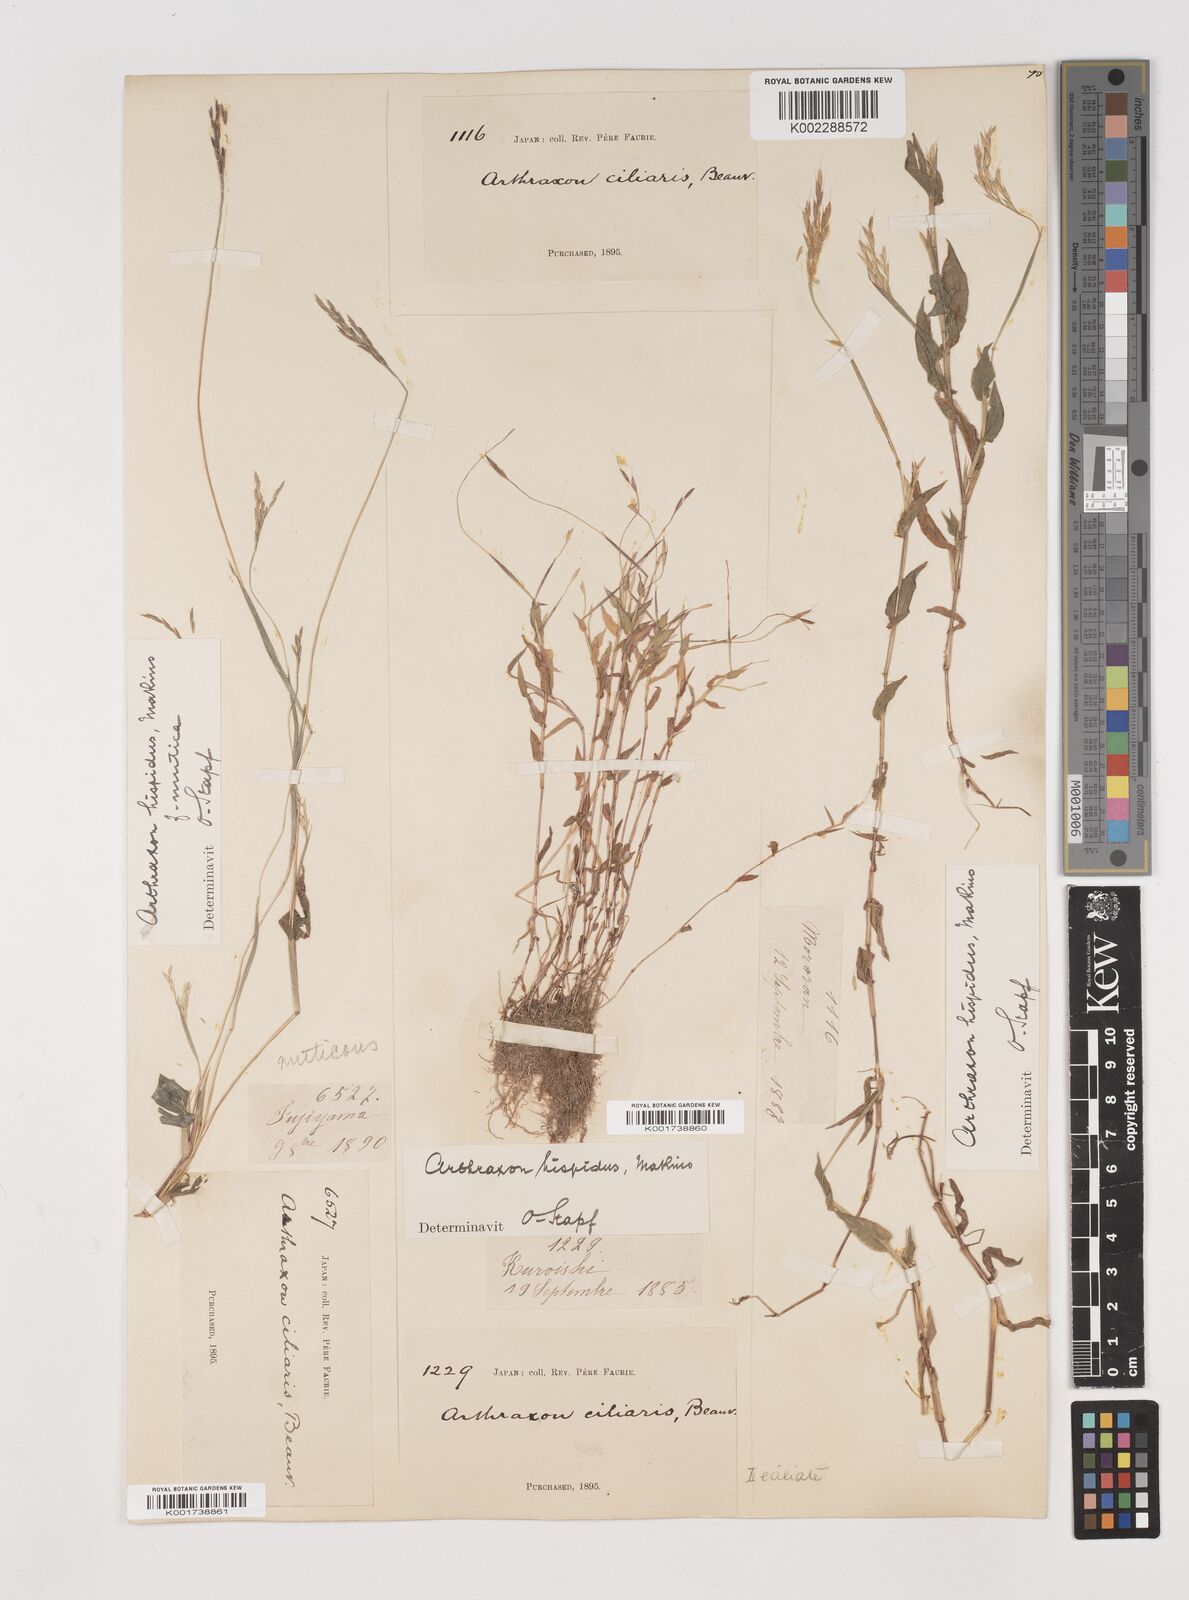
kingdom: Plantae
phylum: Tracheophyta
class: Liliopsida
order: Poales
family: Poaceae
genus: Arthraxon
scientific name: Arthraxon hispidus
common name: Small carpgrass
